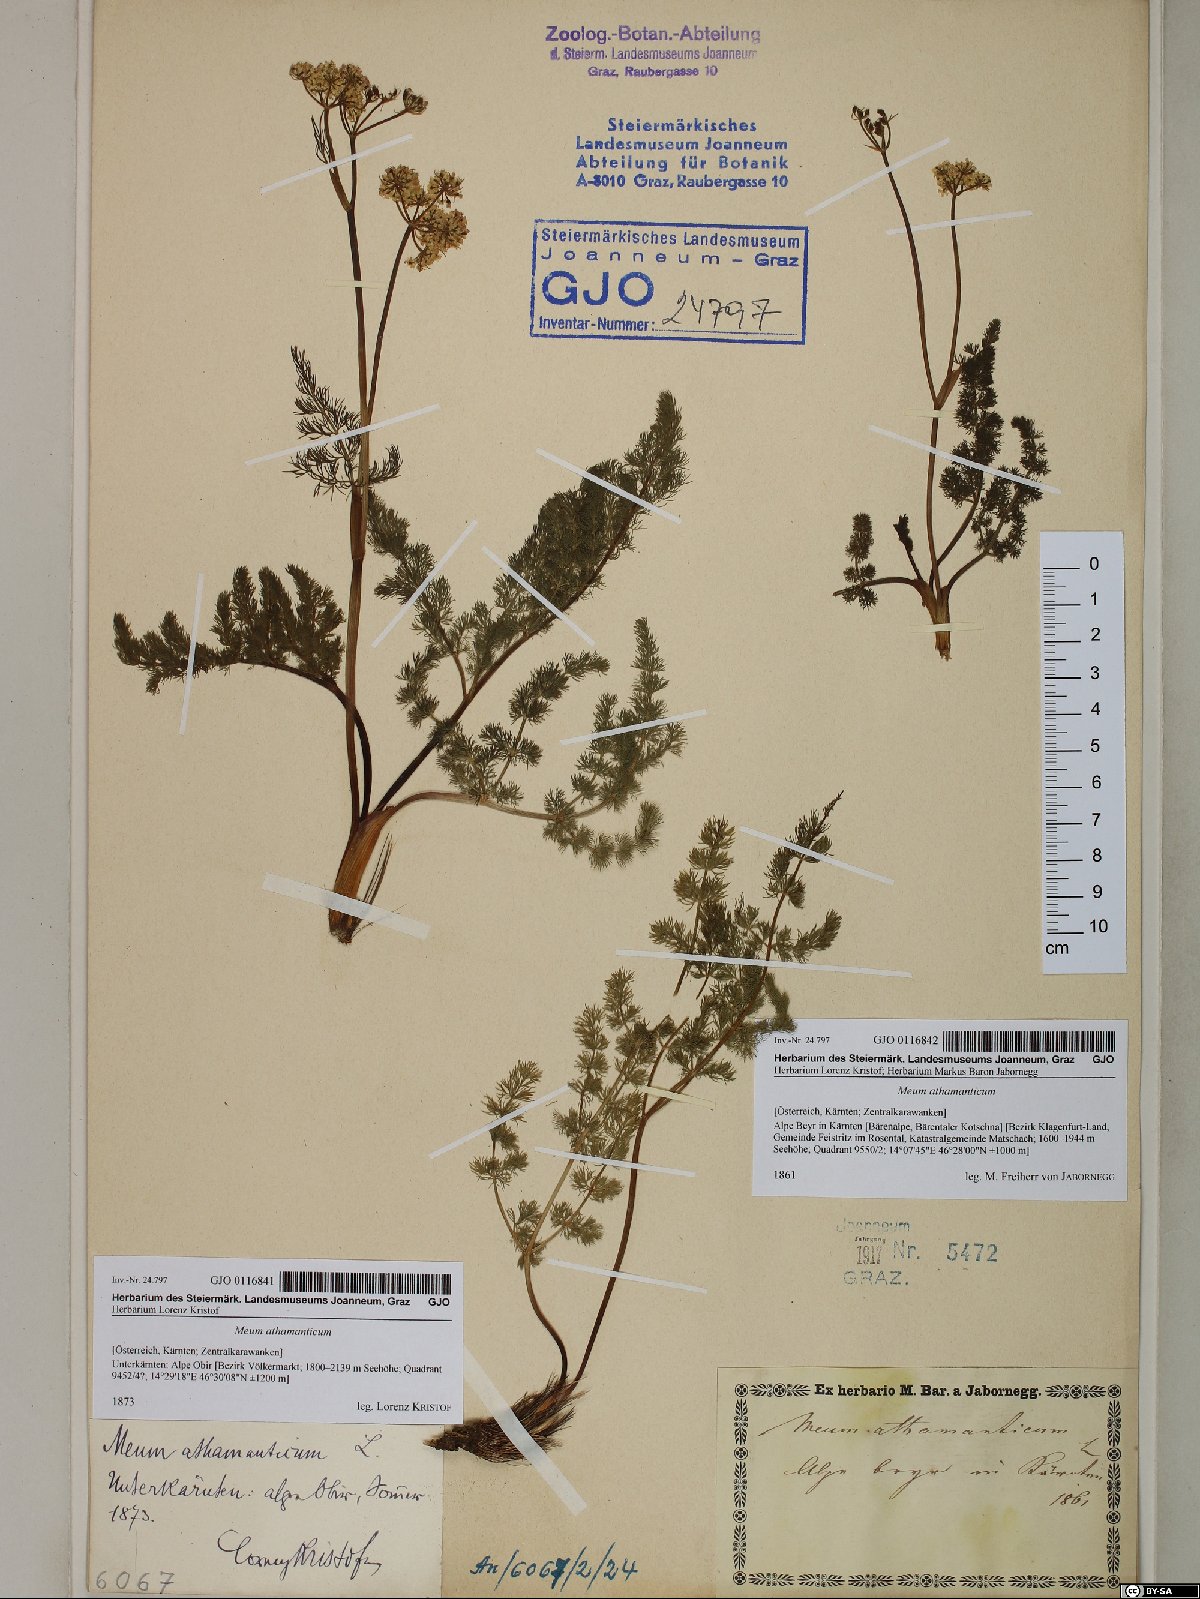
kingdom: Plantae
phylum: Tracheophyta
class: Magnoliopsida
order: Apiales
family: Apiaceae
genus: Meum
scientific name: Meum athamanticum
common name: Spignel
